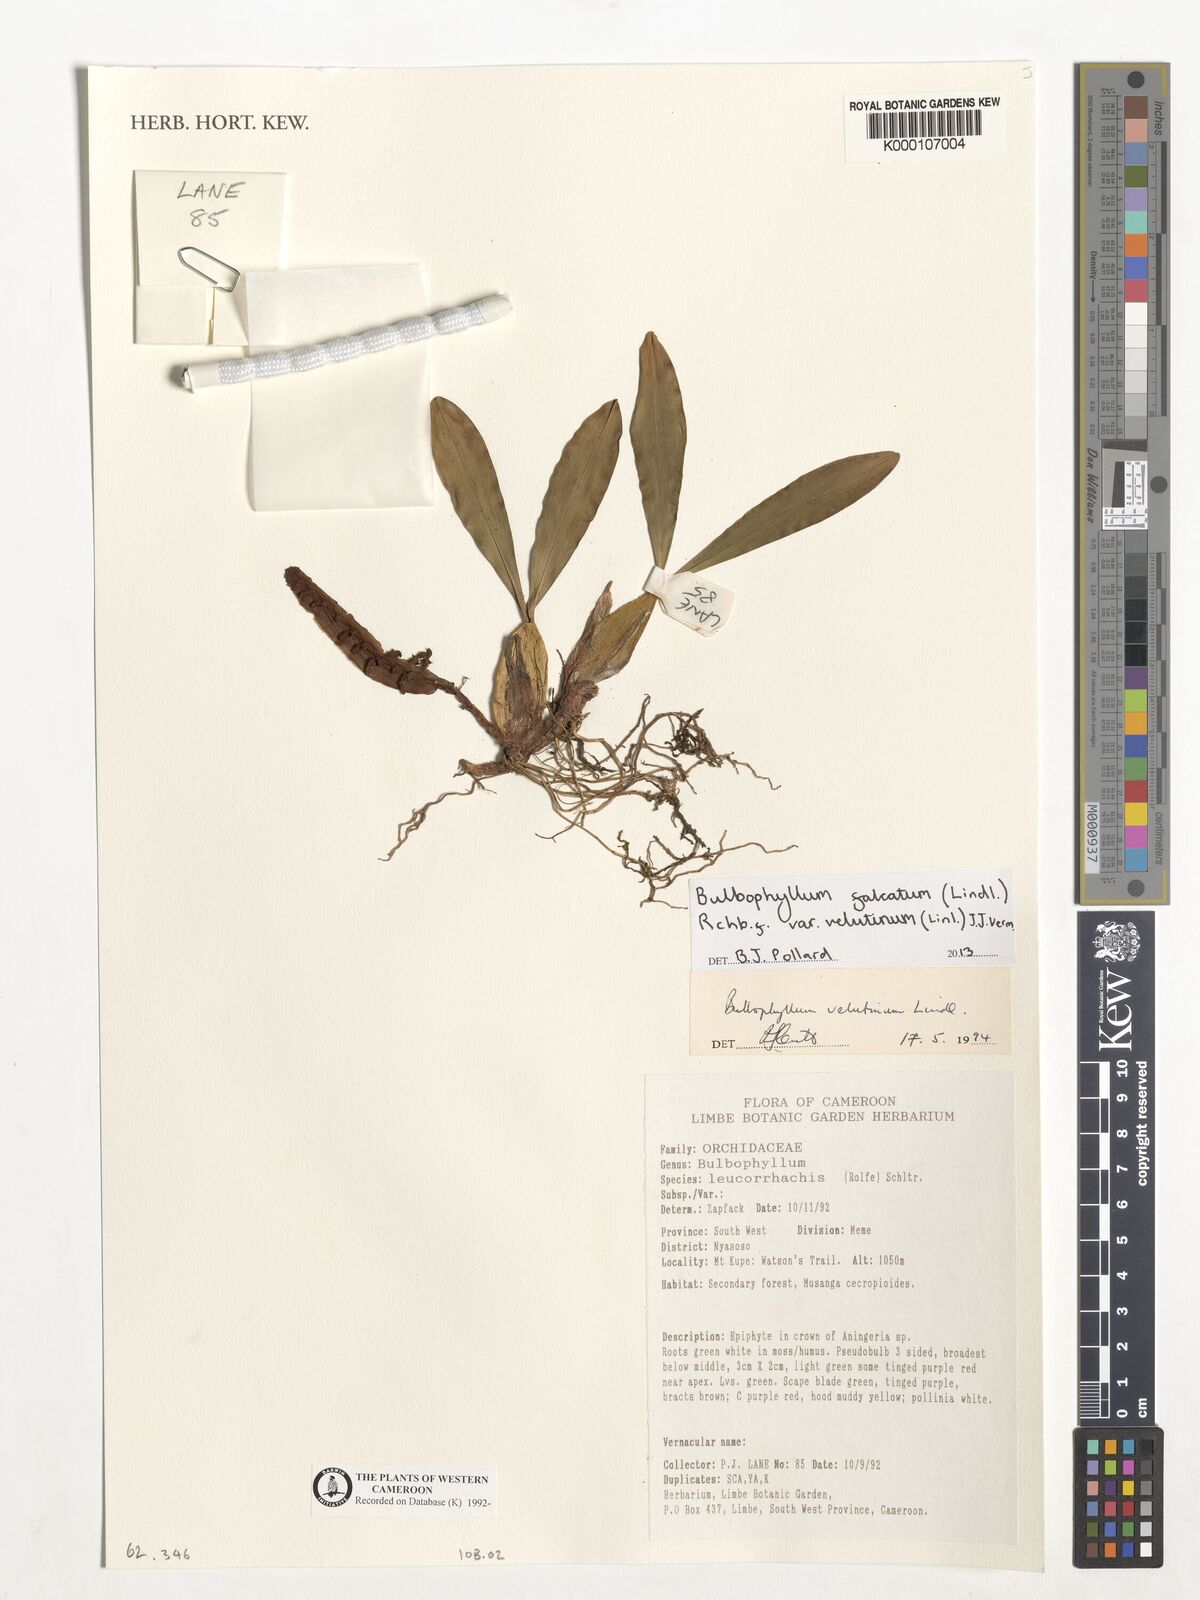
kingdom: Plantae
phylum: Tracheophyta
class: Liliopsida
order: Asparagales
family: Orchidaceae
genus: Bulbophyllum
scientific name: Bulbophyllum falcatum
